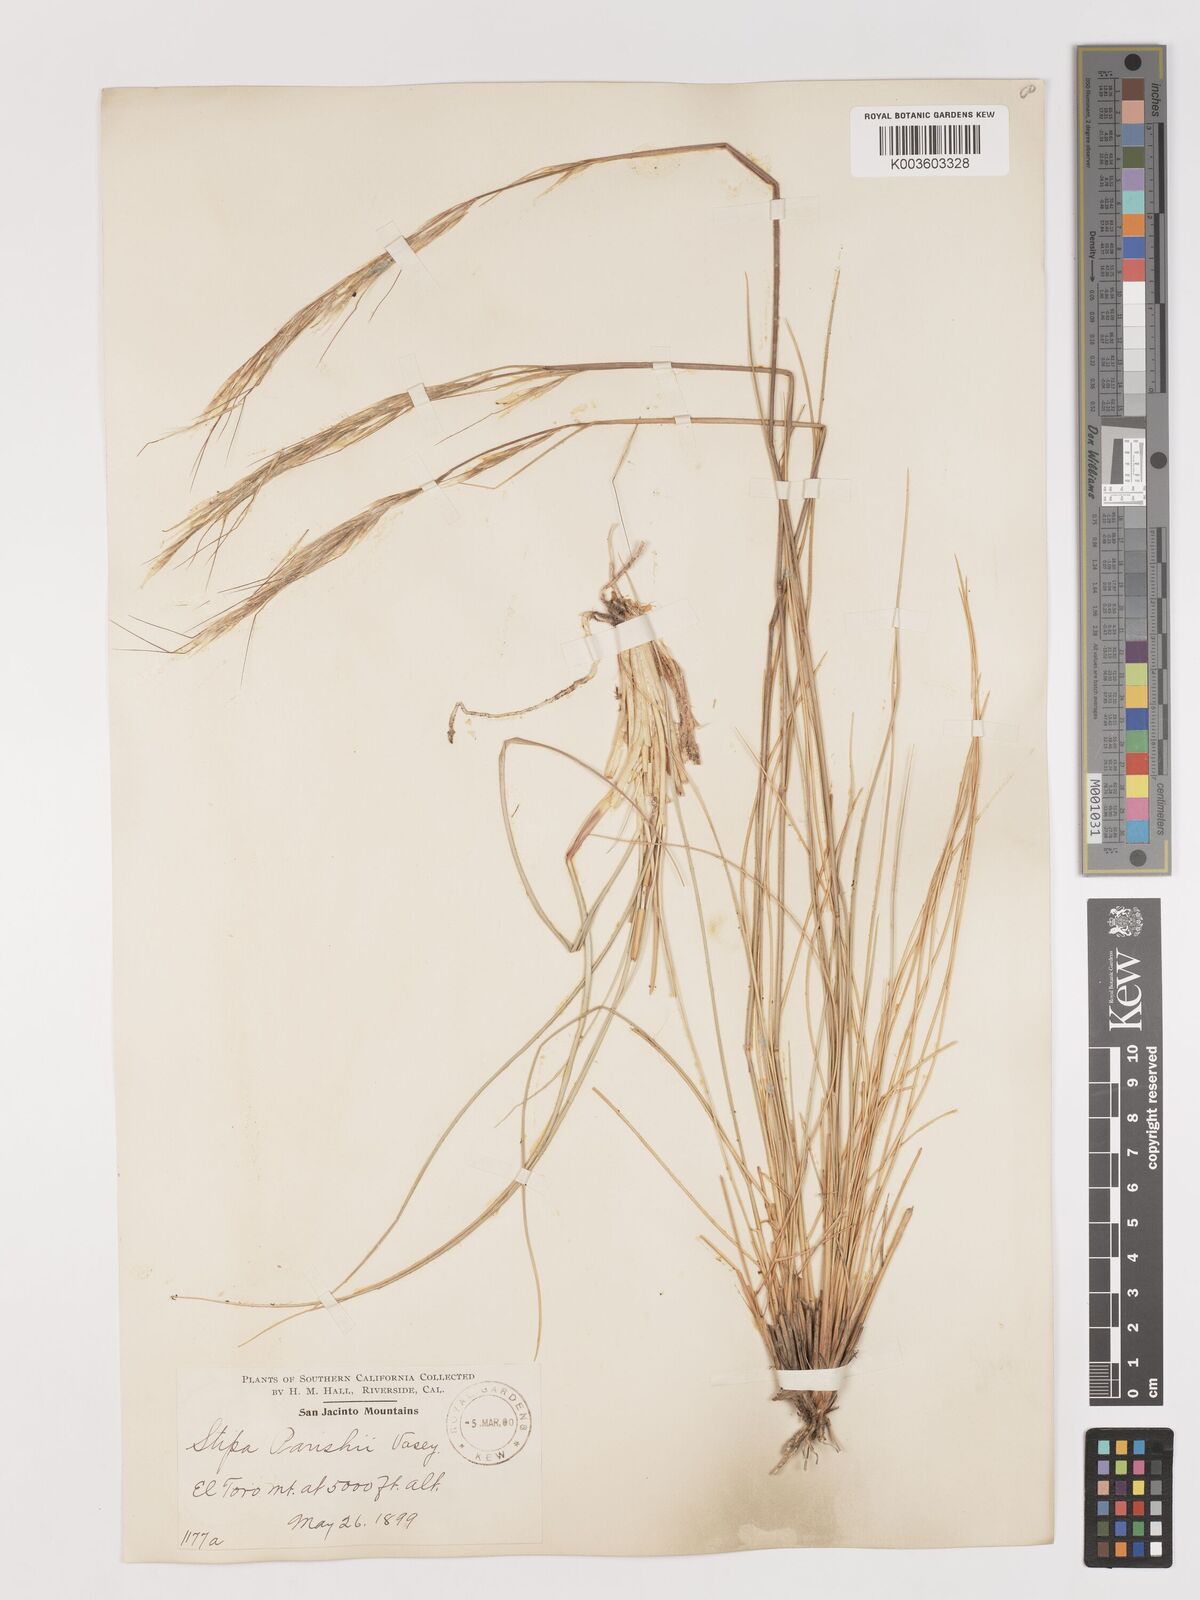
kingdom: Plantae
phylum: Tracheophyta
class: Liliopsida
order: Poales
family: Poaceae
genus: Hesperostipa
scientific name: Hesperostipa comata
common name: Needle-and-thread grass
